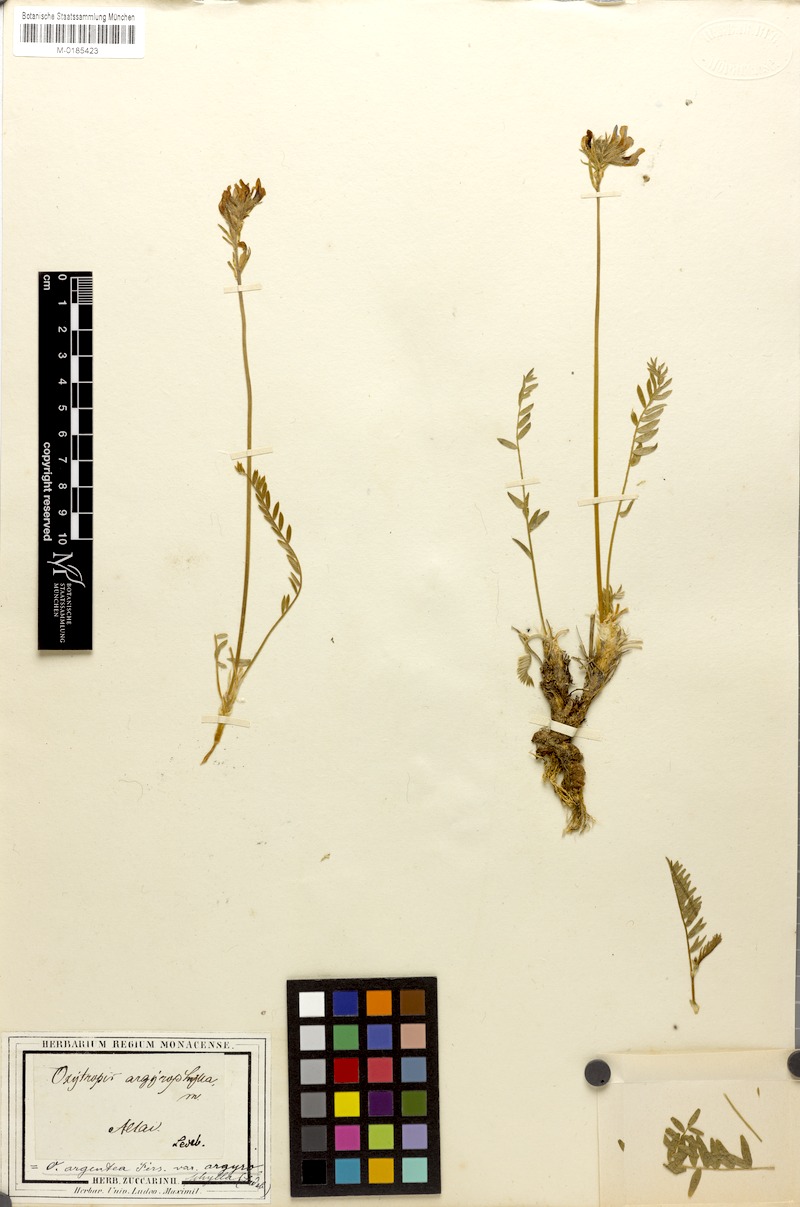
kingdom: Plantae
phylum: Tracheophyta
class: Magnoliopsida
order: Fabales
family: Fabaceae
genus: Oxytropis
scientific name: Oxytropis argentata
